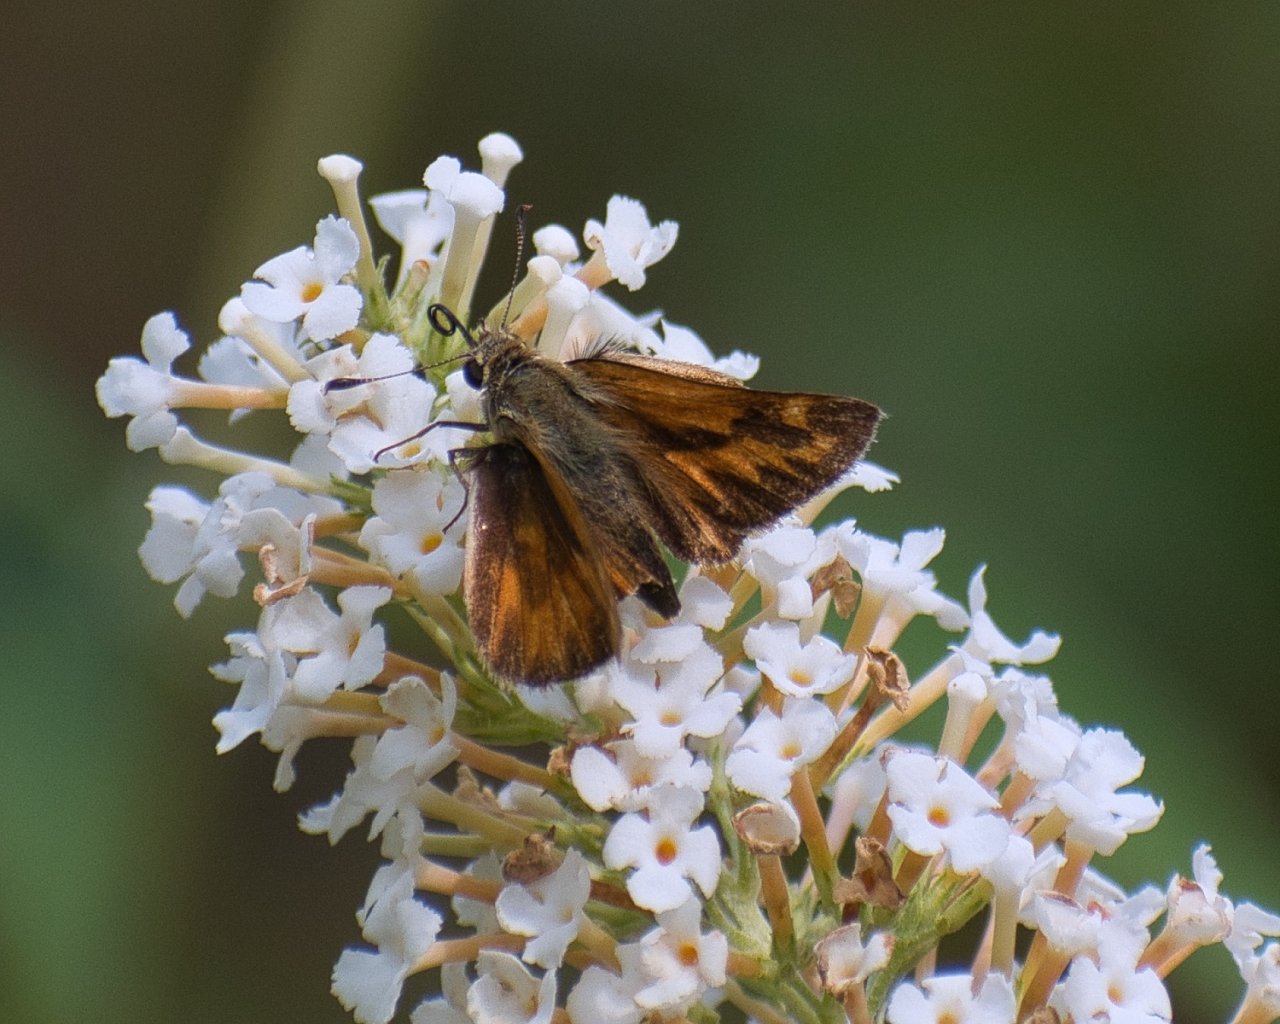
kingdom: Animalia
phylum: Arthropoda
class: Insecta
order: Lepidoptera
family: Hesperiidae
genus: Ochlodes
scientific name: Ochlodes sylvanoides
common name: Woodland Skipper
